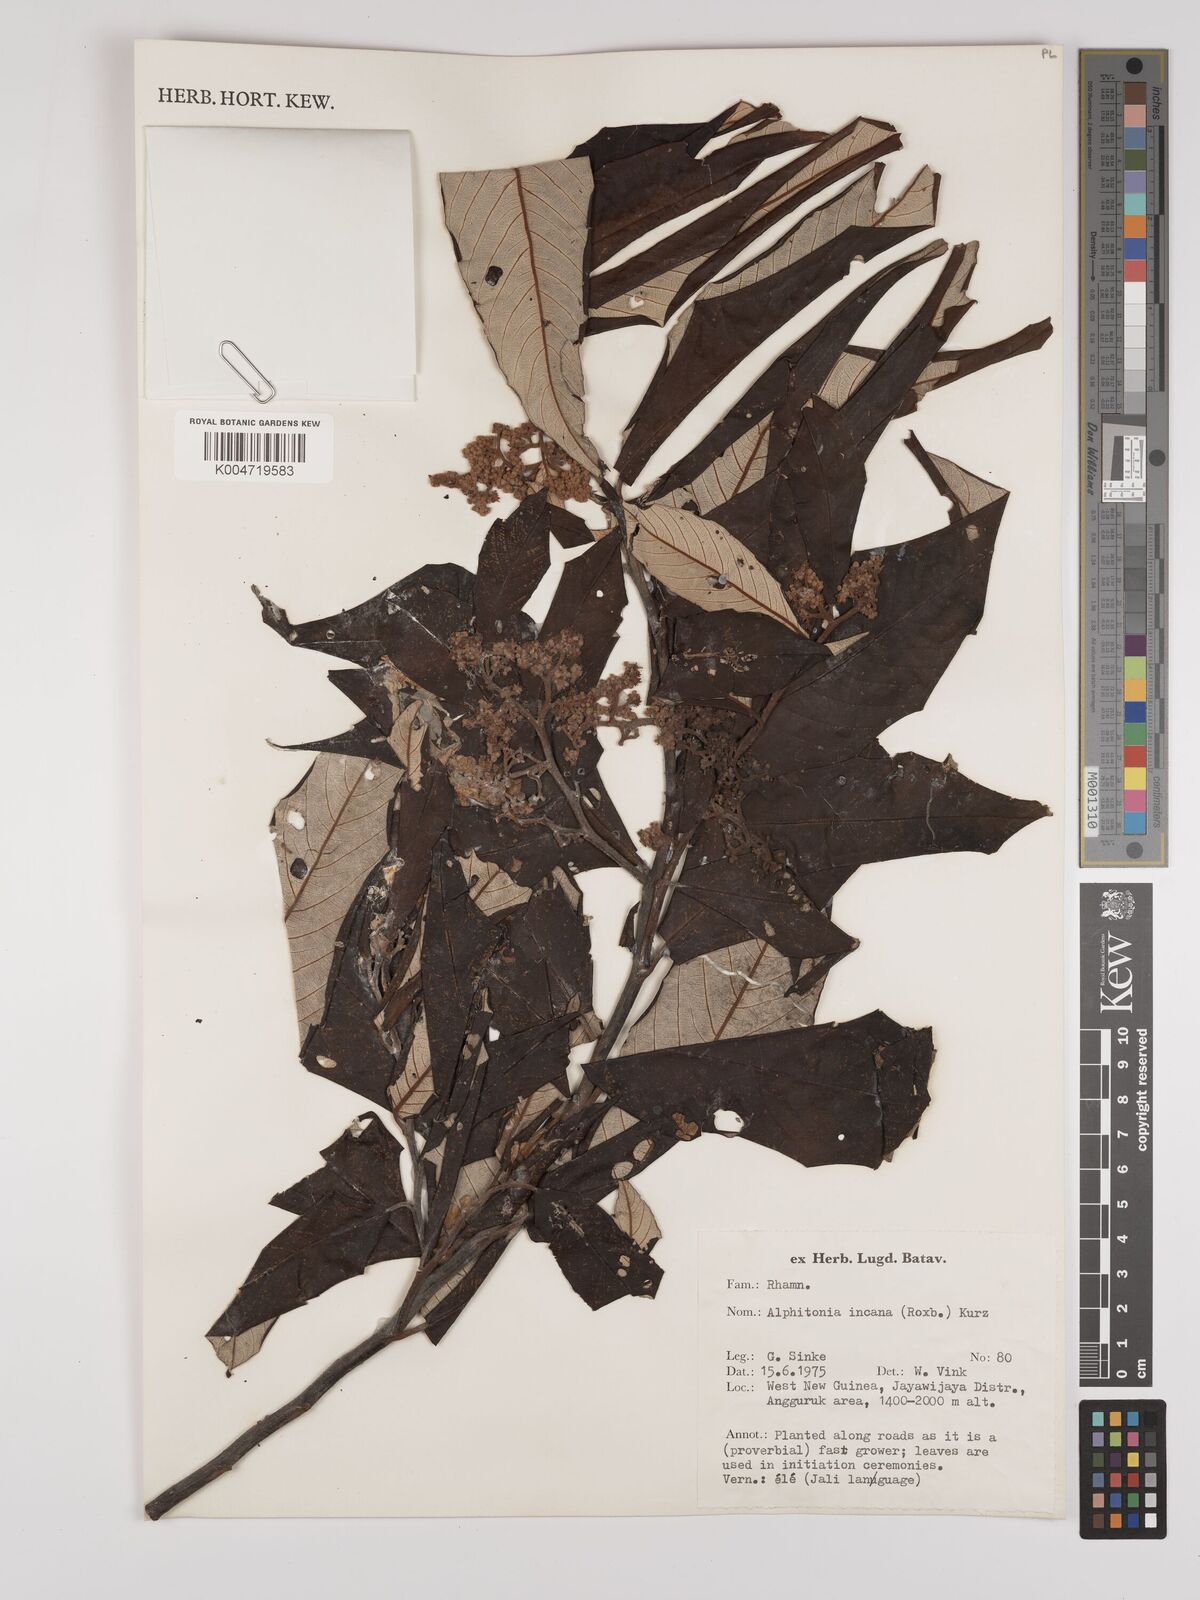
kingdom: Plantae
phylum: Tracheophyta
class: Magnoliopsida
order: Rosales
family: Rhamnaceae
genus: Alphitonia
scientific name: Alphitonia incana
